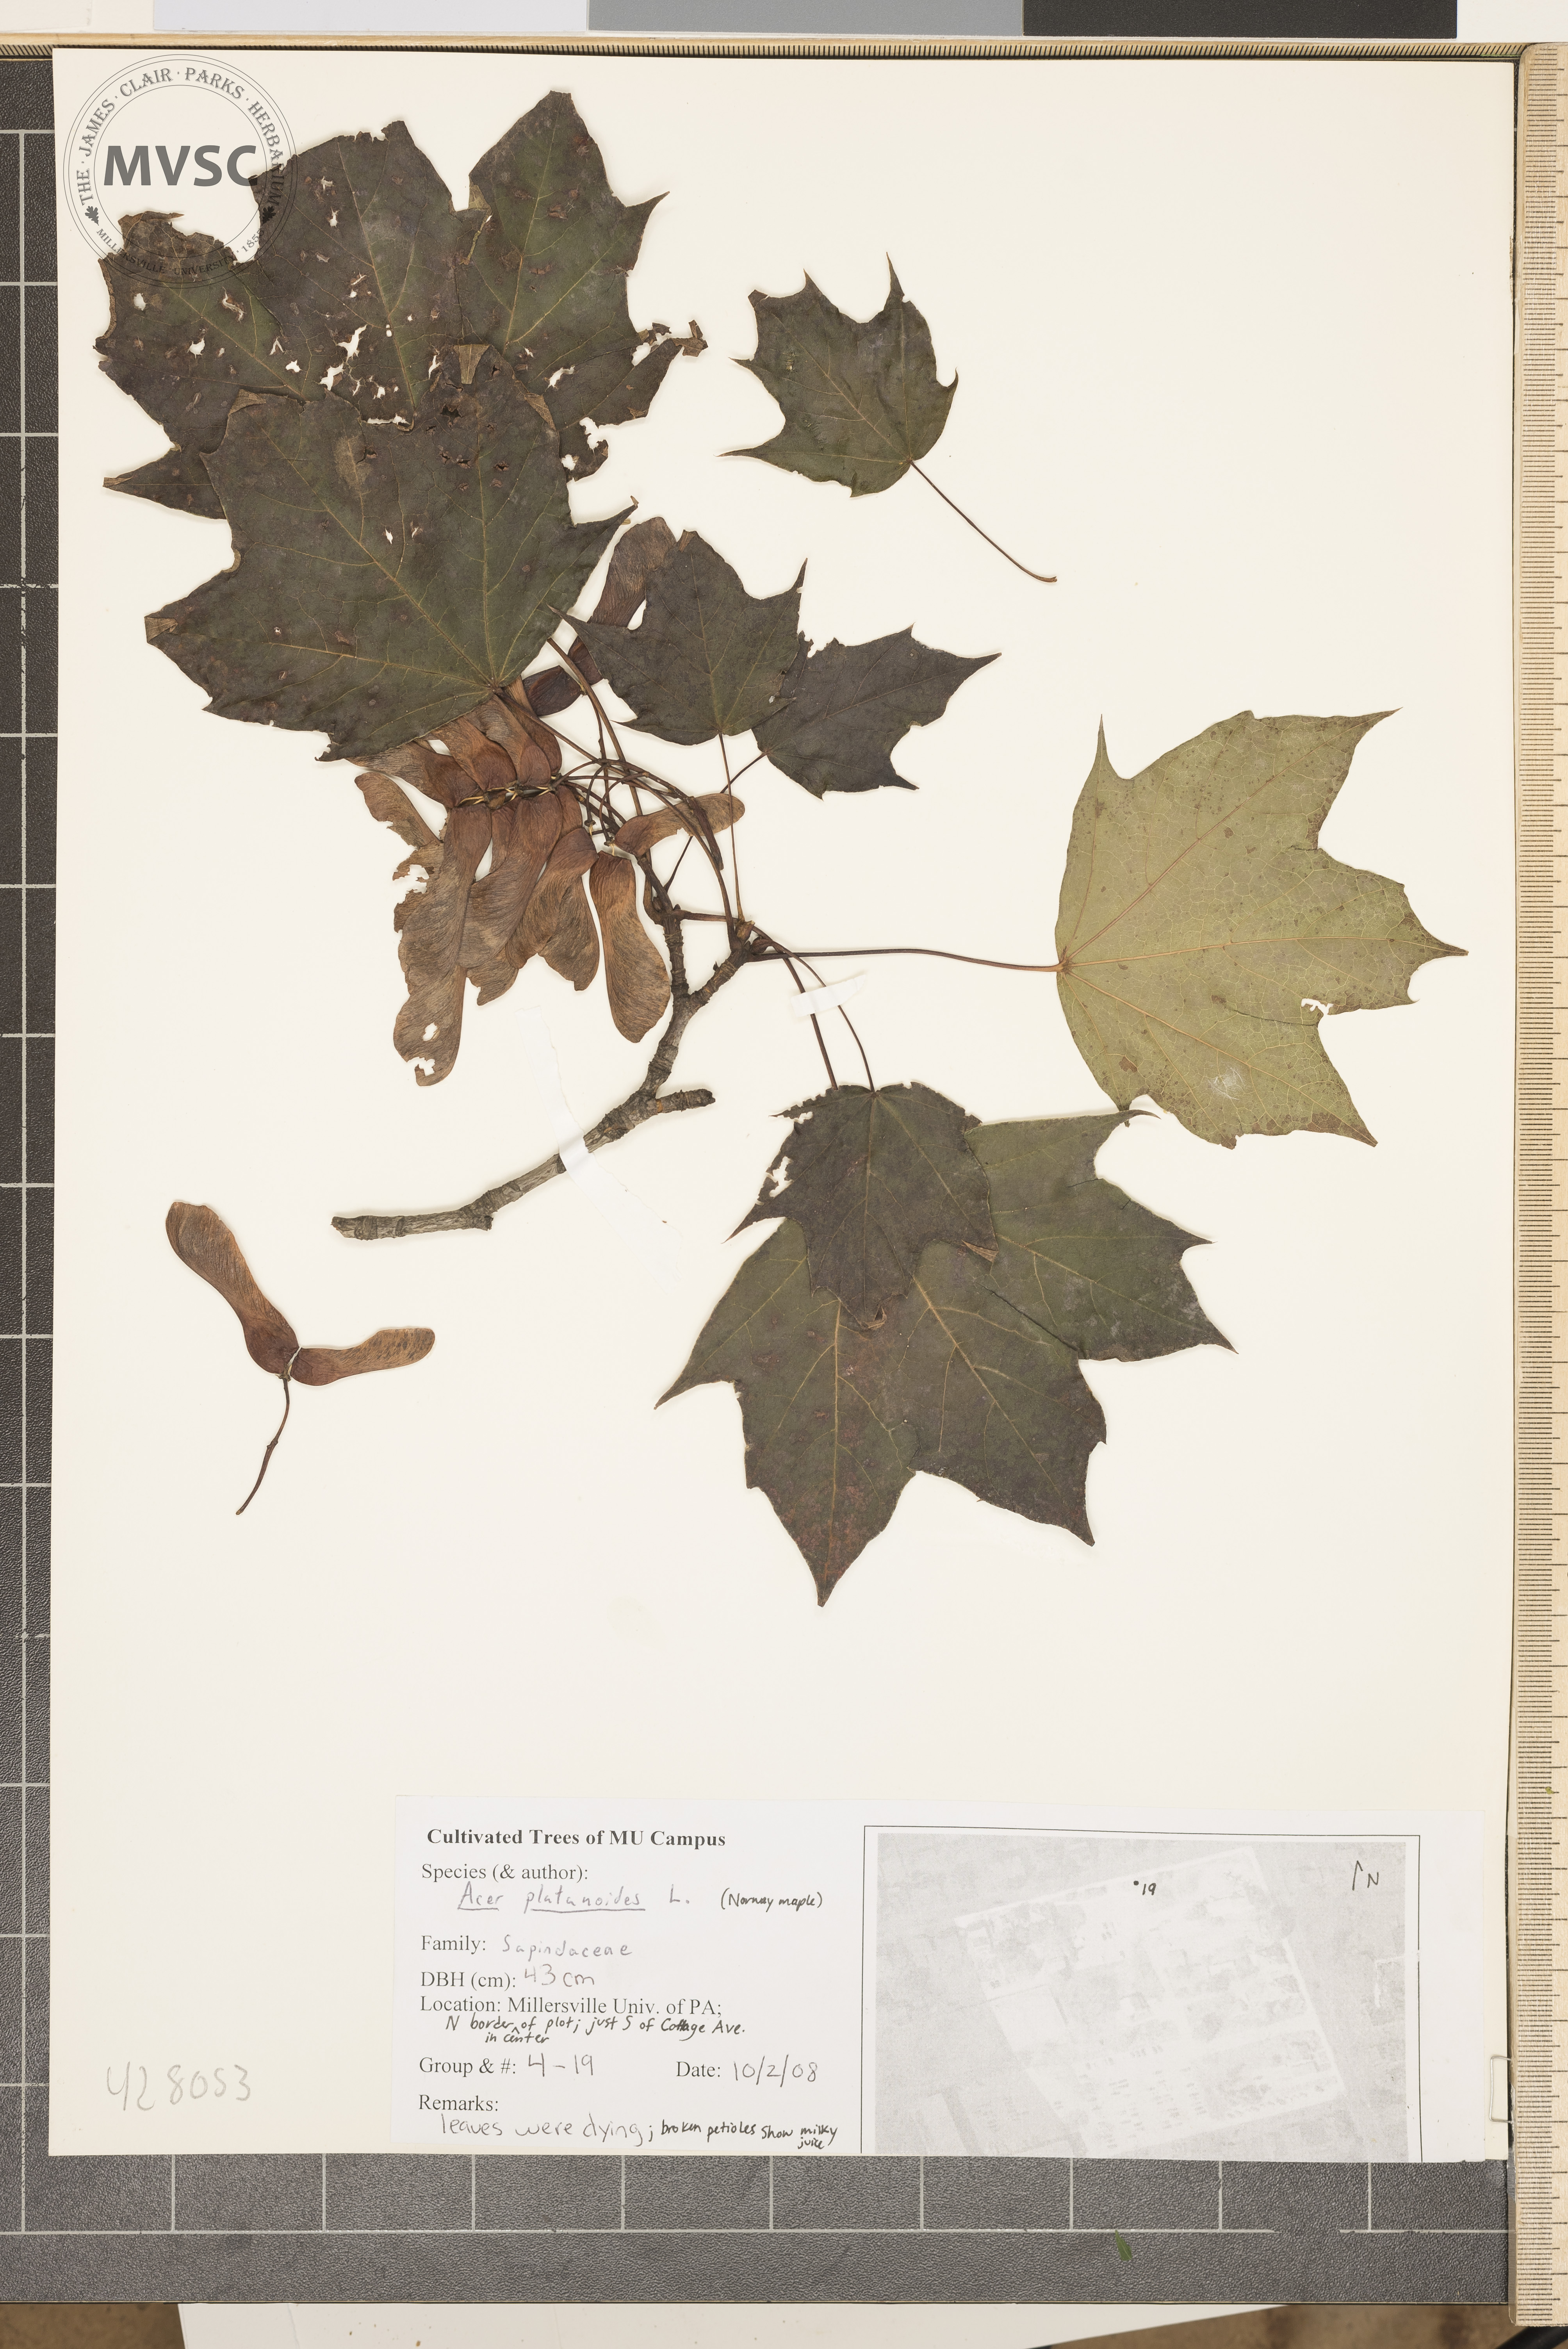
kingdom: Plantae
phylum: Tracheophyta
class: Magnoliopsida
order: Sapindales
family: Sapindaceae
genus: Acer
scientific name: Acer platanoides
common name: Norway Maple
